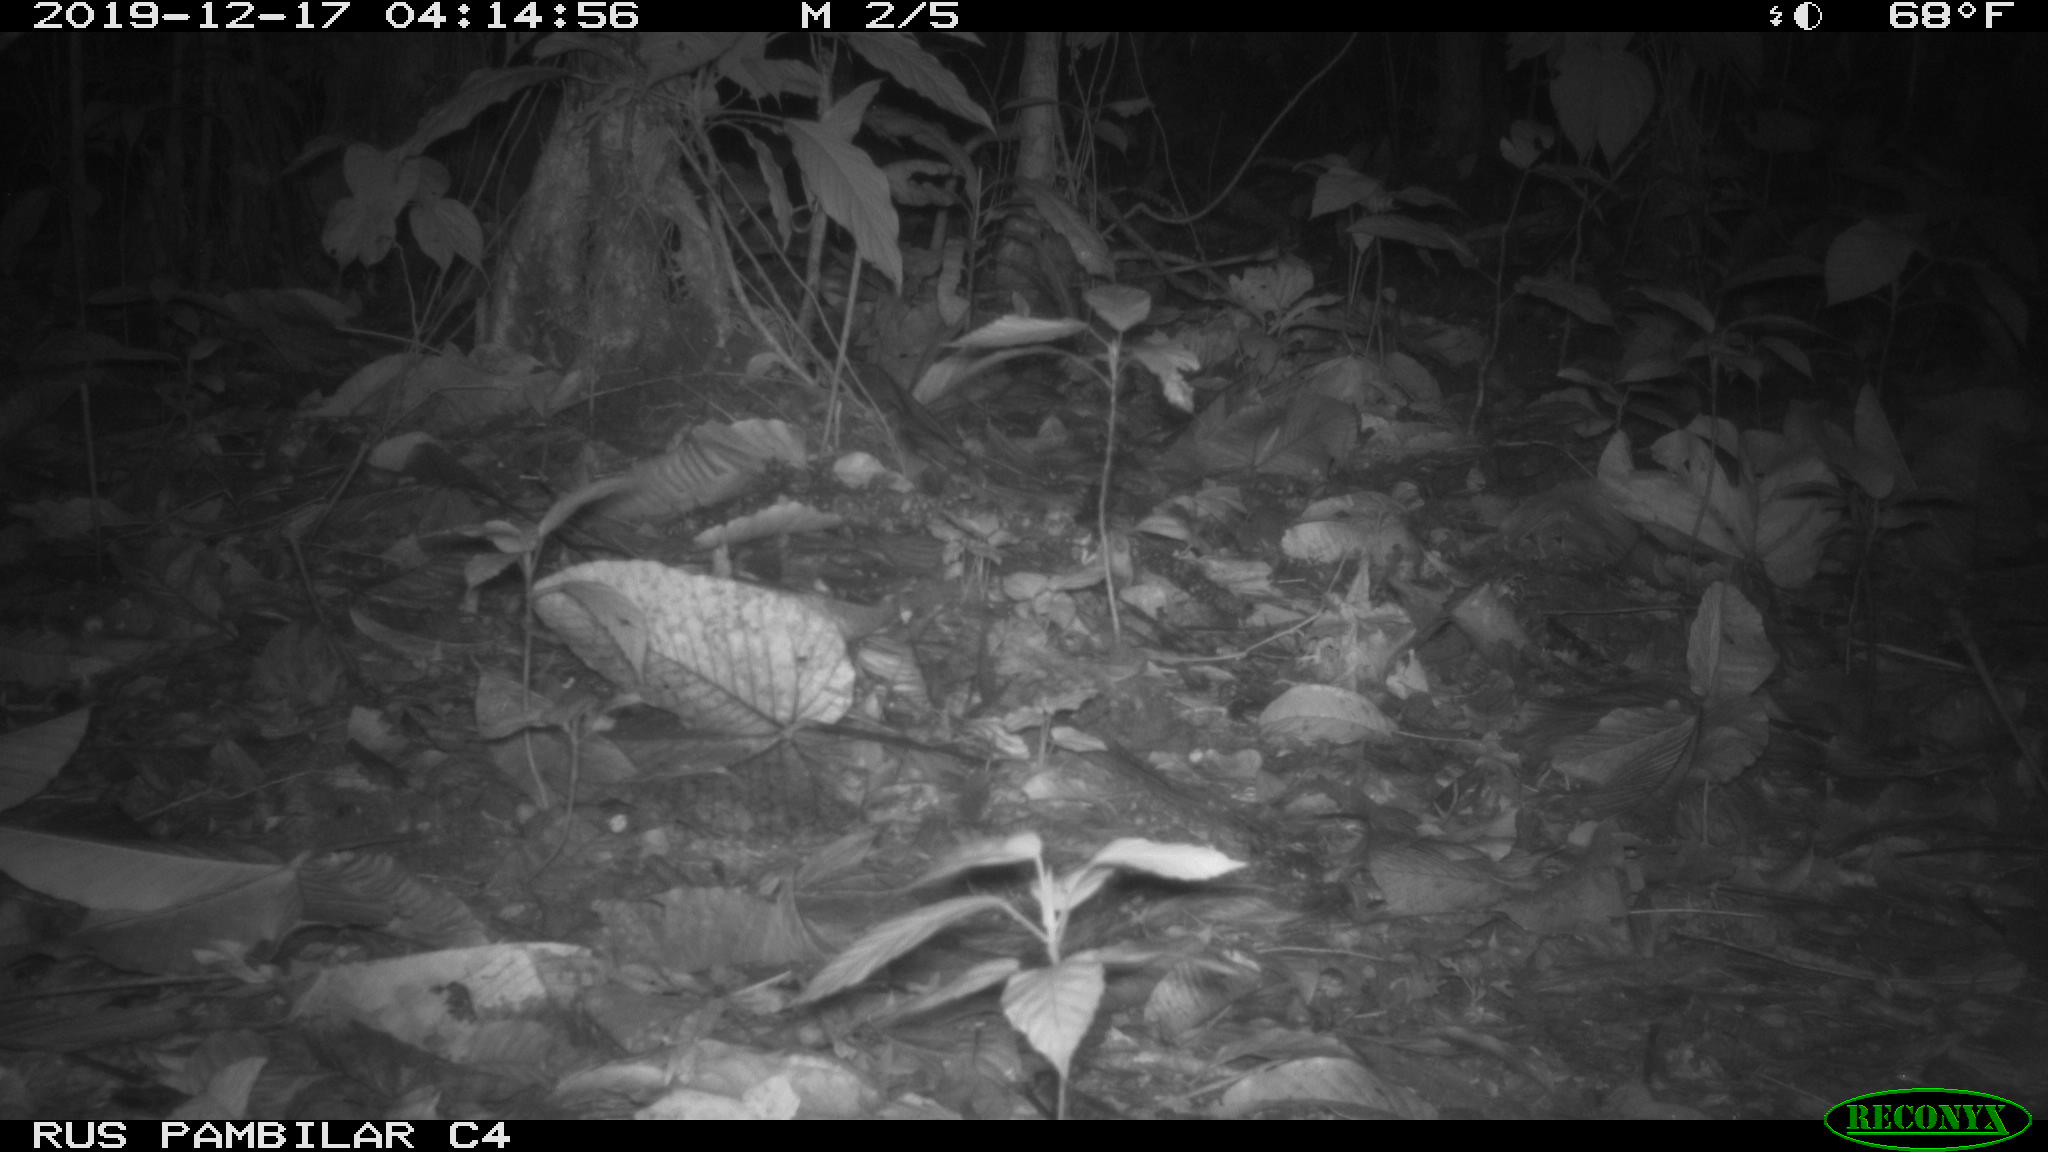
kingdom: Animalia
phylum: Chordata
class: Mammalia
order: Rodentia
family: Echimyidae
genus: Proechimys
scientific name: Proechimys
